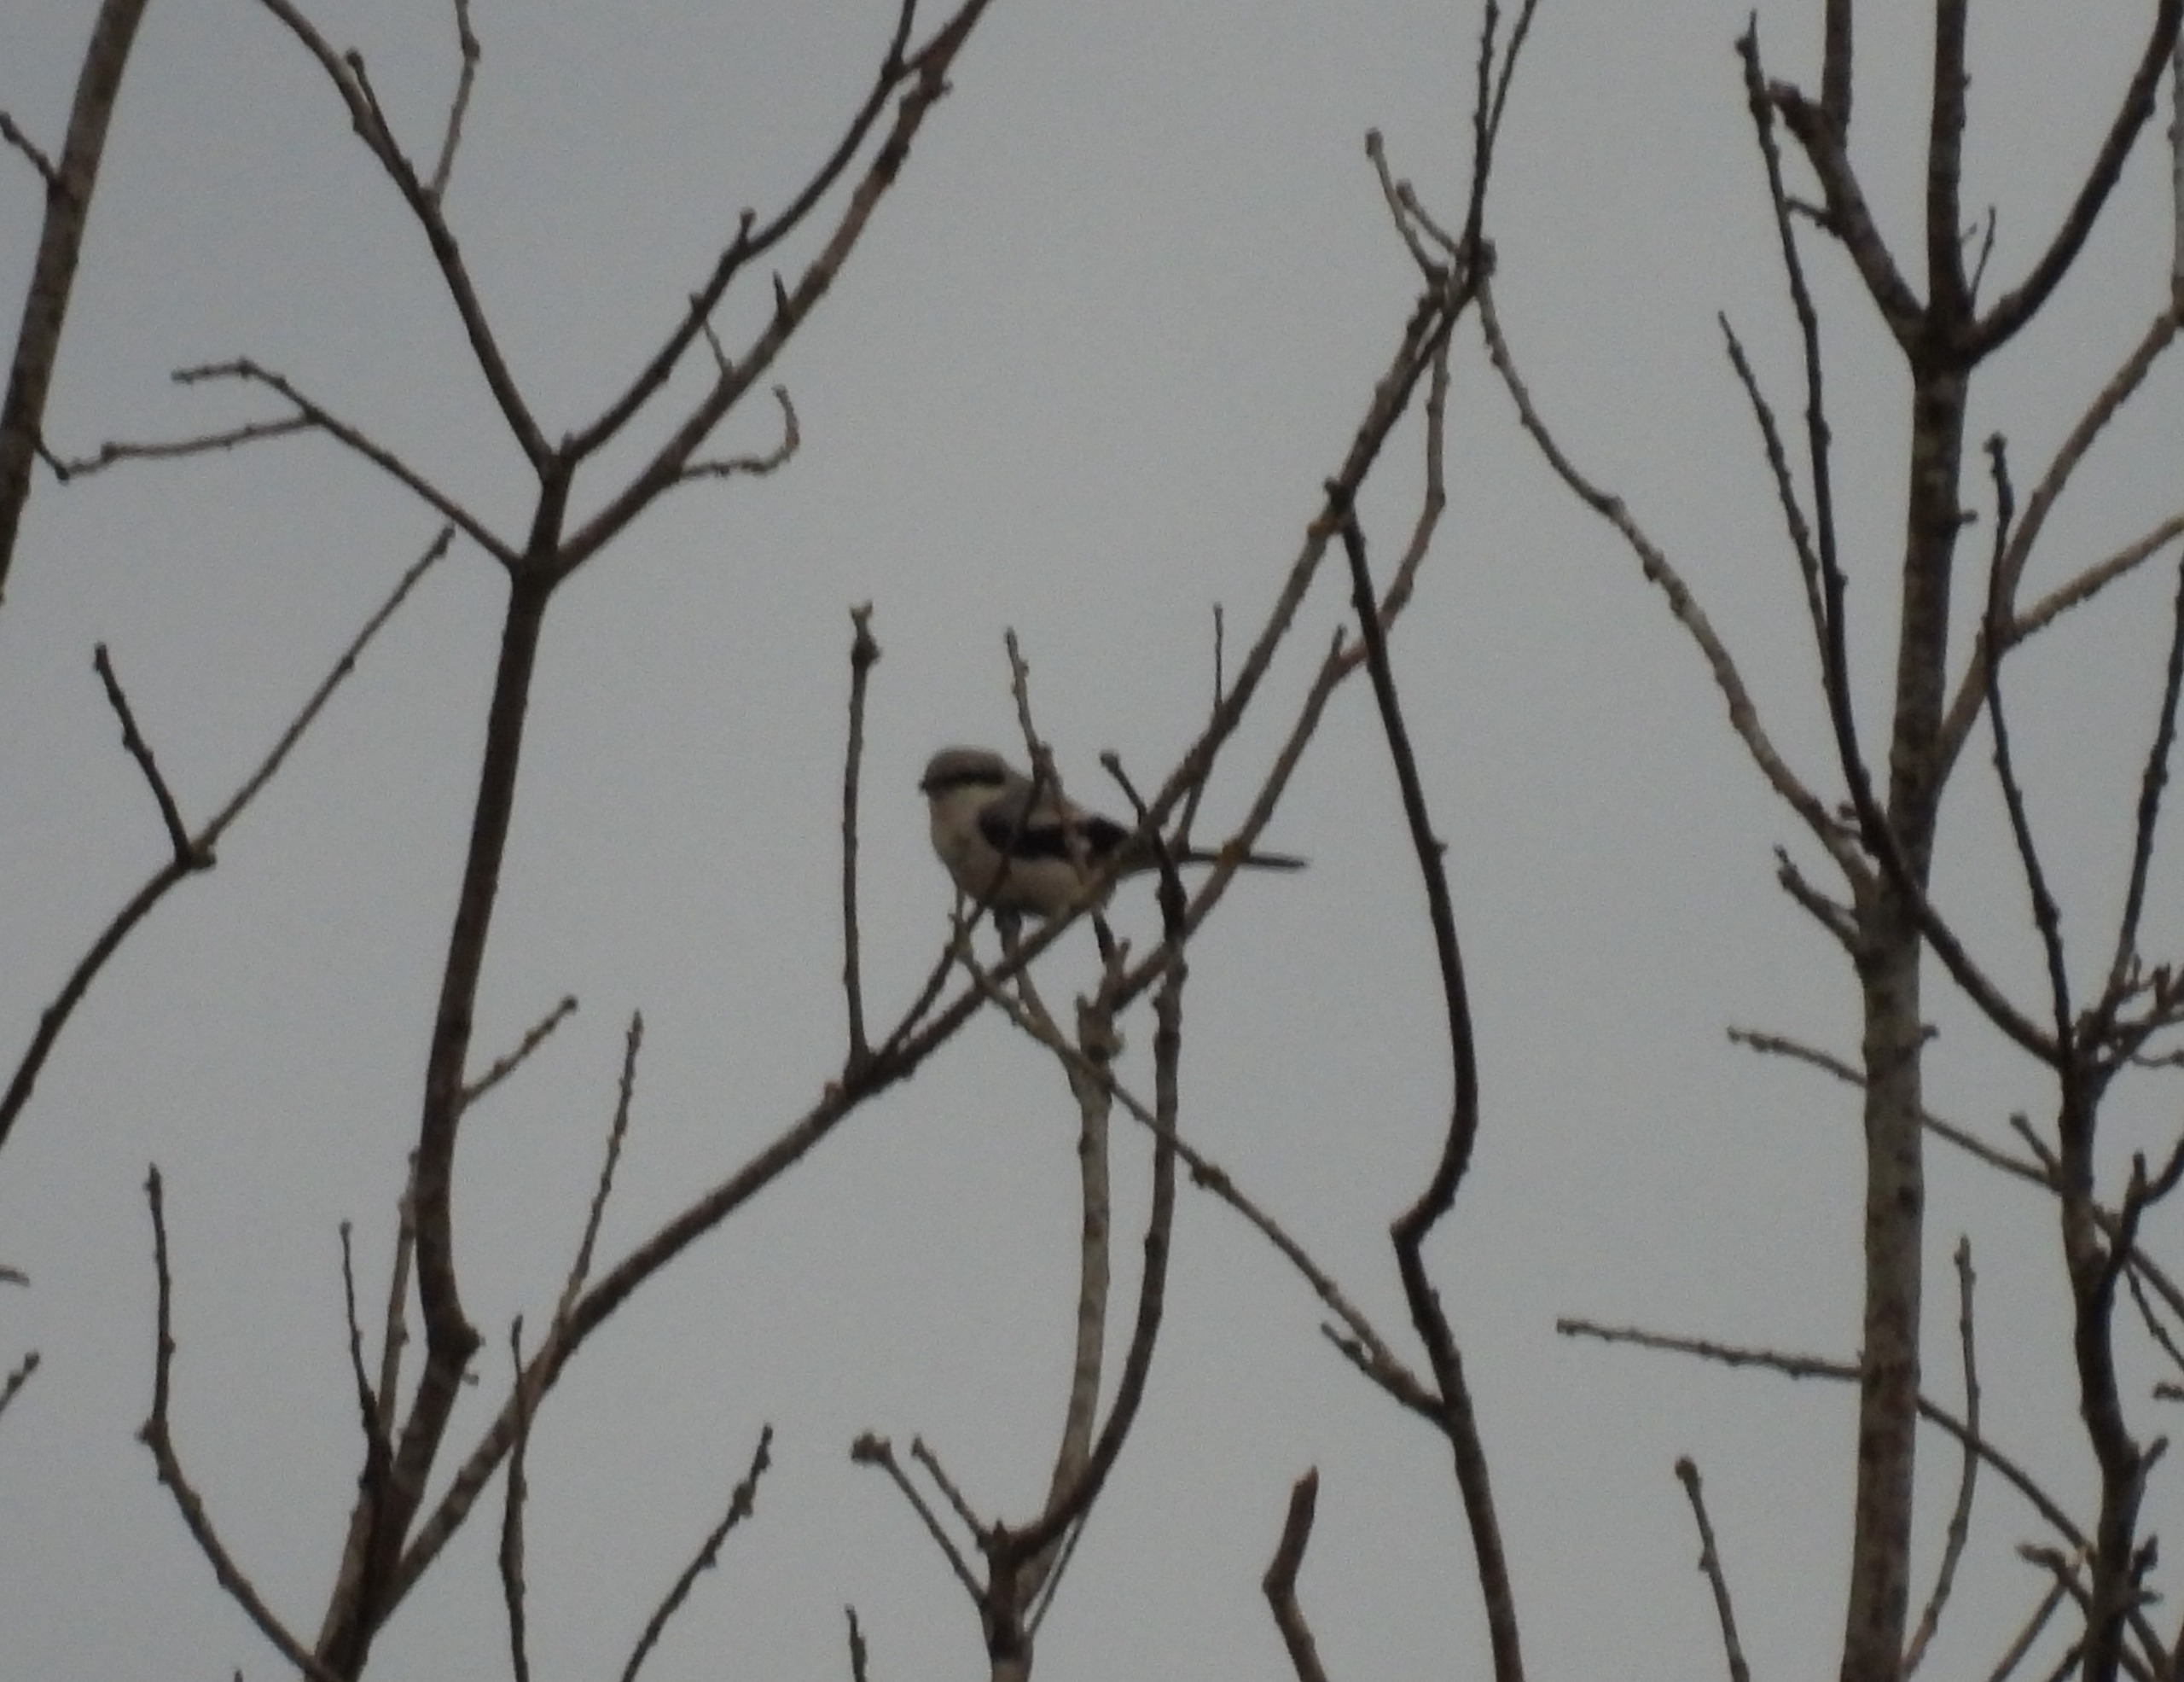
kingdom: Animalia
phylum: Chordata
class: Aves
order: Passeriformes
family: Laniidae
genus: Lanius
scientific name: Lanius excubitor
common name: Stor tornskade
